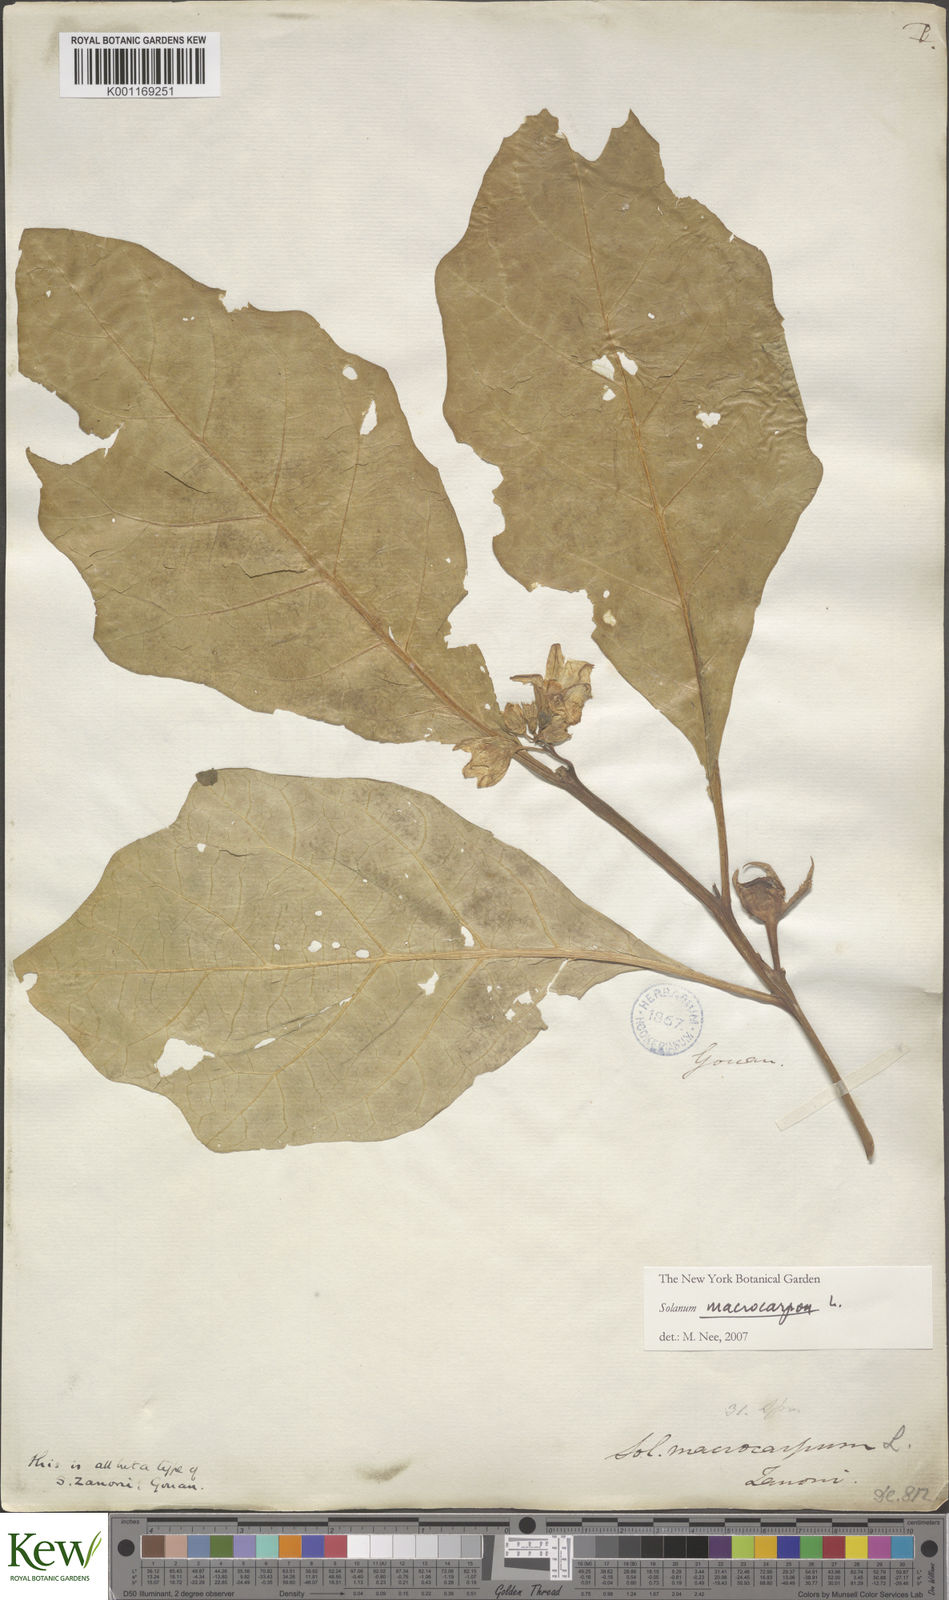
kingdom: Plantae
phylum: Tracheophyta
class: Magnoliopsida
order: Solanales
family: Solanaceae
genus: Solanum
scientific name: Solanum macrocarpon
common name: African eggplant
